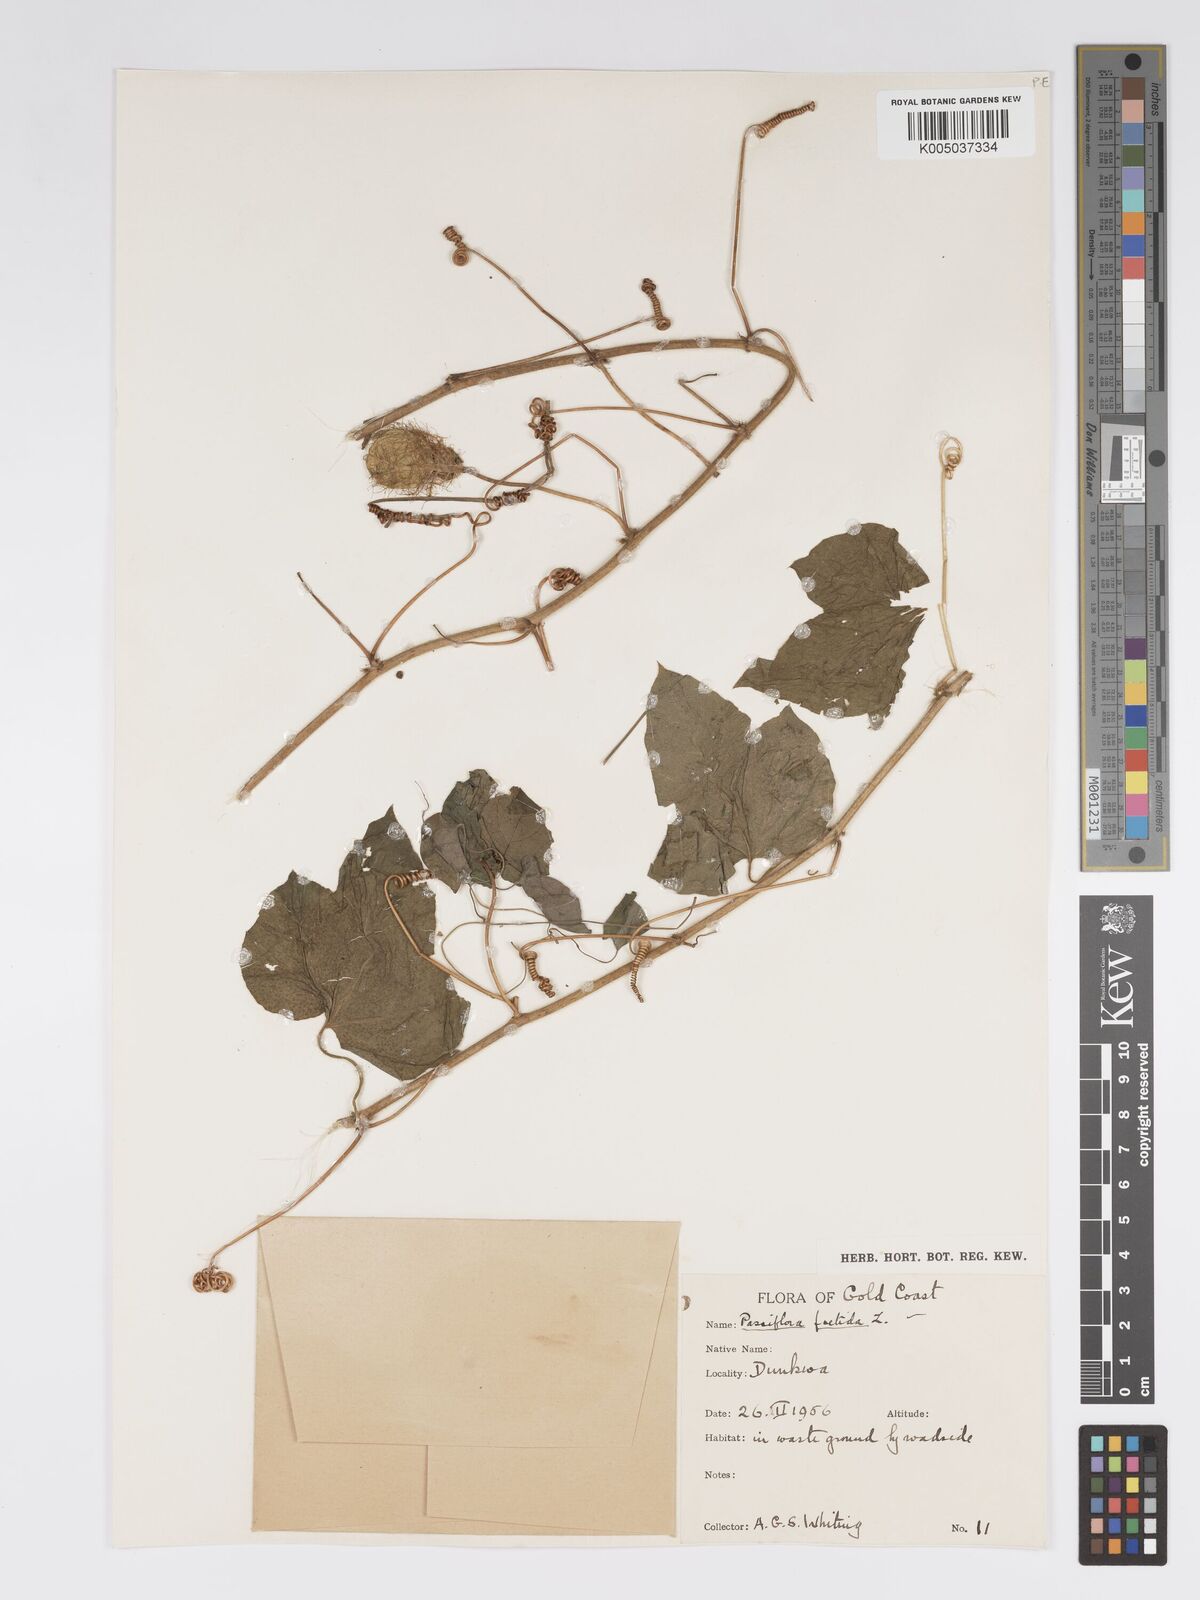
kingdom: Plantae
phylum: Tracheophyta
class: Magnoliopsida
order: Malpighiales
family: Passifloraceae
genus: Passiflora
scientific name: Passiflora foetida
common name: Fetid passionflower
